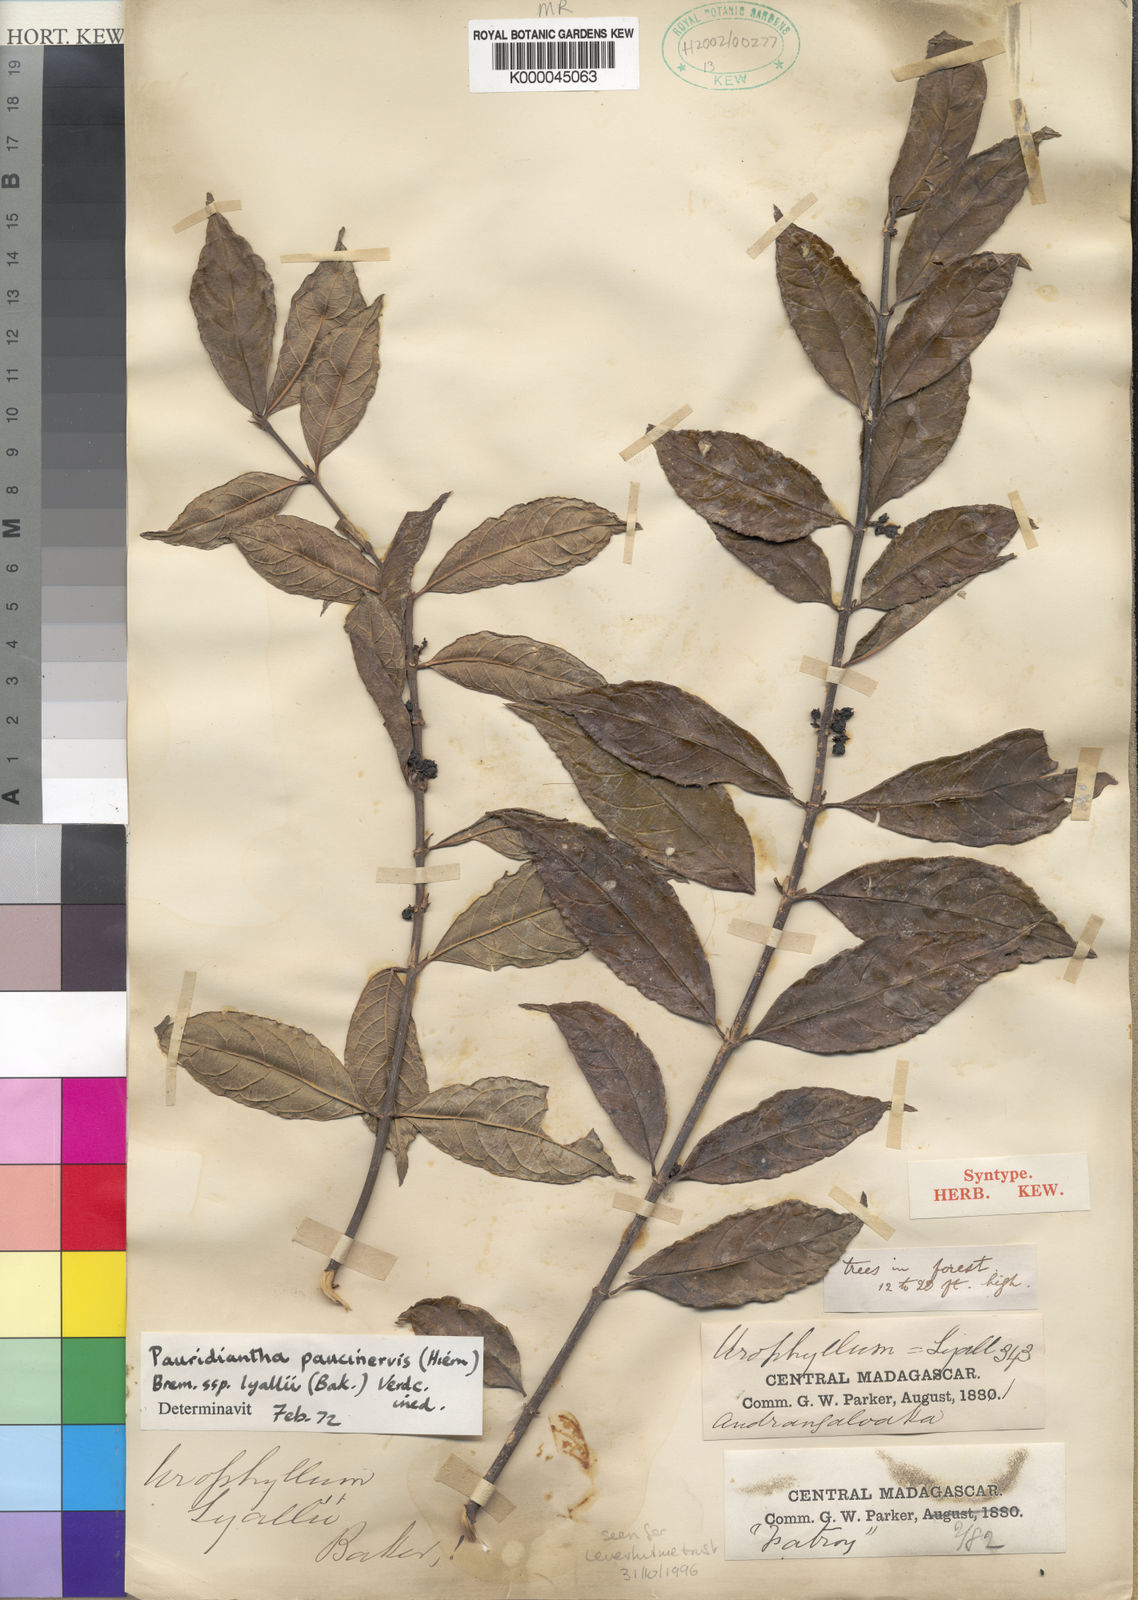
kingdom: Plantae
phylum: Tracheophyta
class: Magnoliopsida
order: Gentianales
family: Rubiaceae
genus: Pauridiantha
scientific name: Pauridiantha paucinervis
